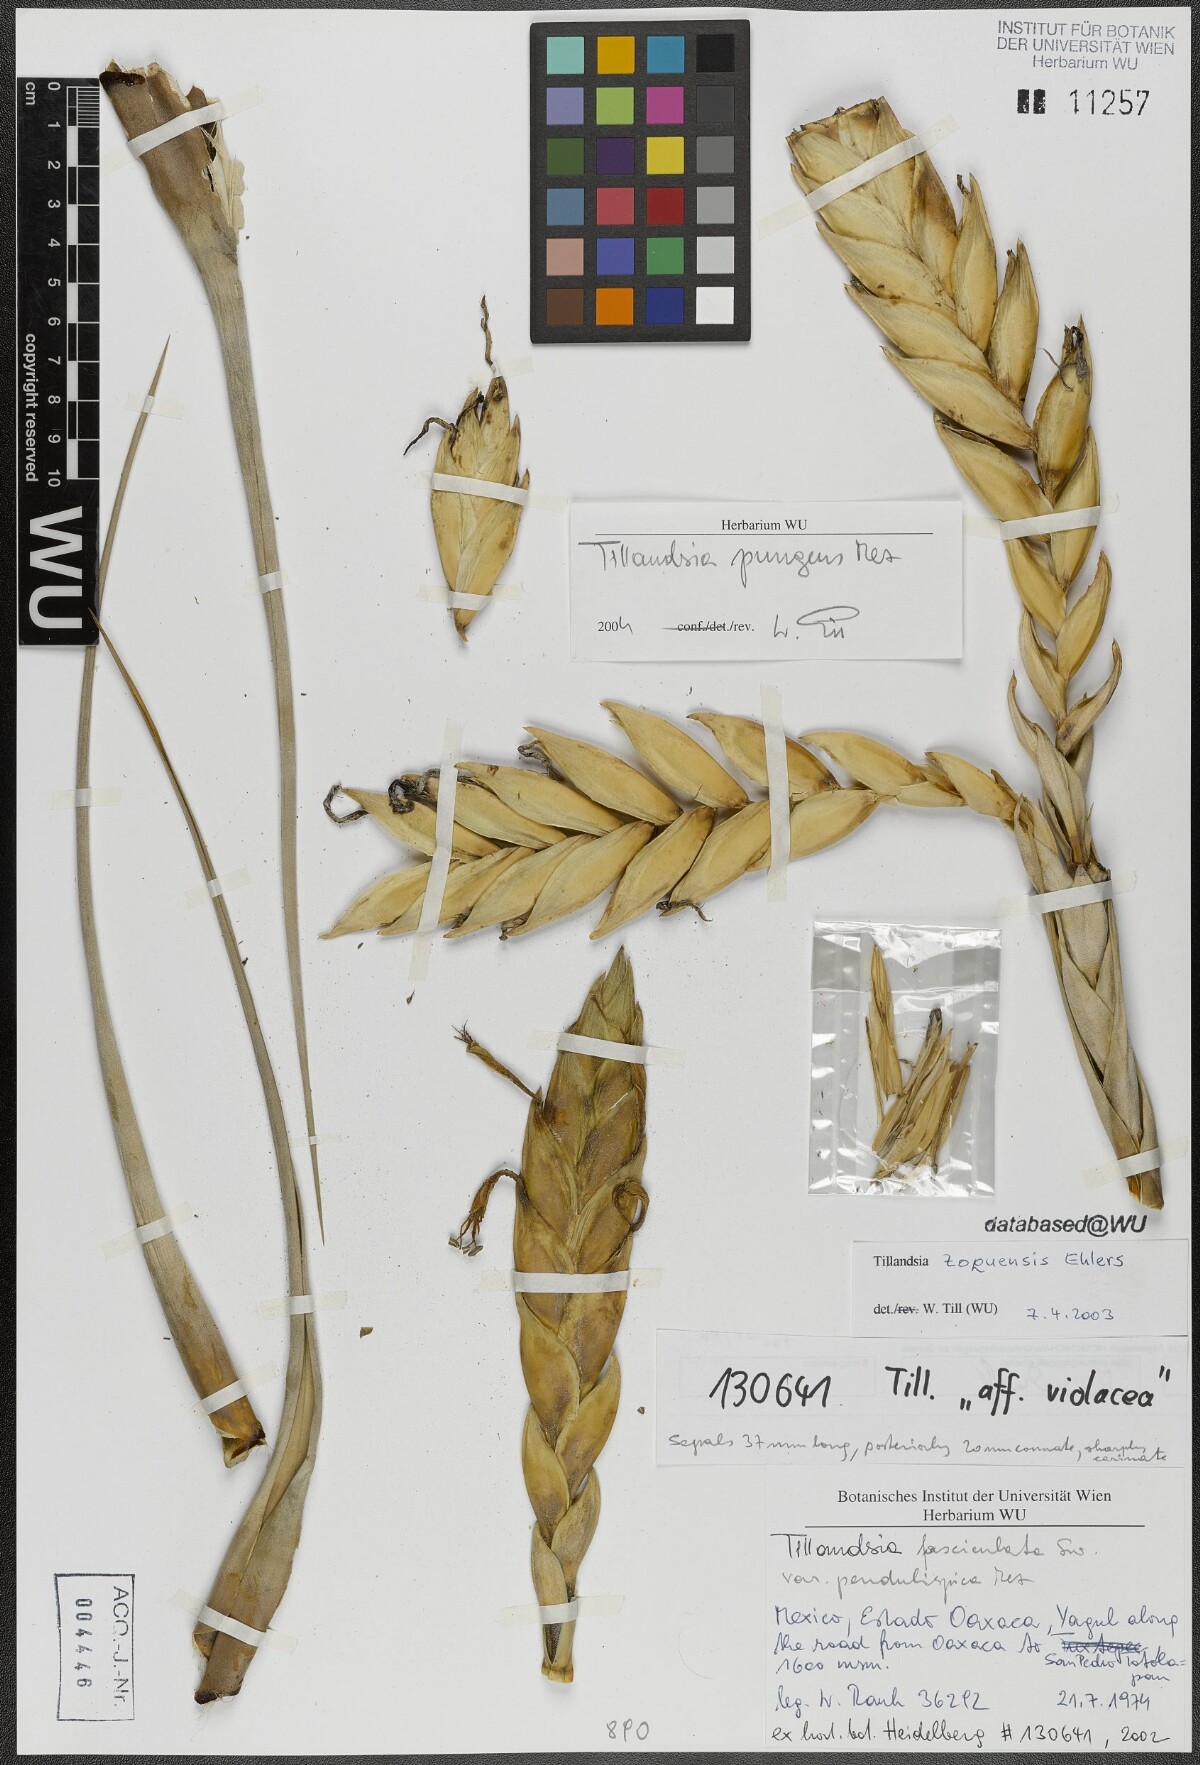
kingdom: Plantae
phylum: Tracheophyta
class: Liliopsida
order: Poales
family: Bromeliaceae
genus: Tillandsia
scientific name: Tillandsia fasciculata
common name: Giant airplant
